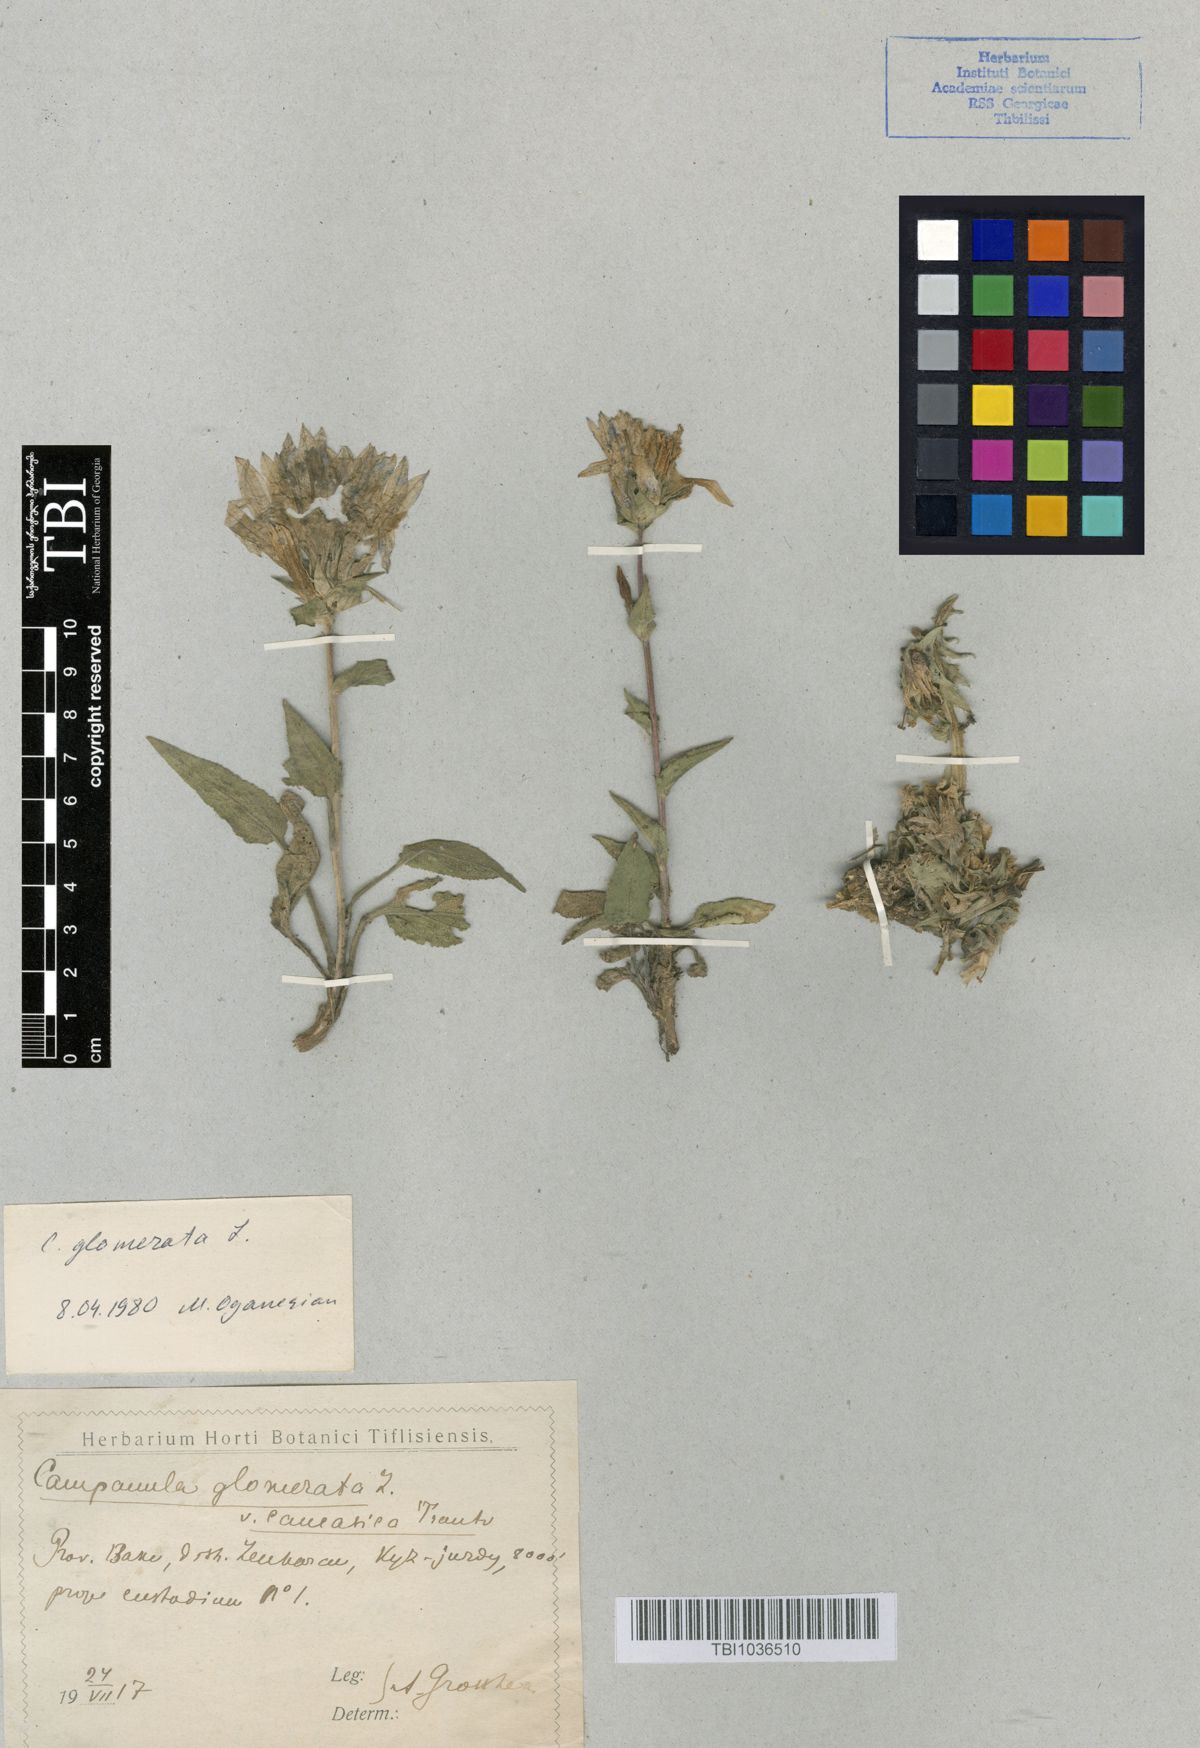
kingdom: Plantae
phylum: Tracheophyta
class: Magnoliopsida
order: Asterales
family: Campanulaceae
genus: Campanula
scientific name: Campanula glomerata
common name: Clustered bellflower
